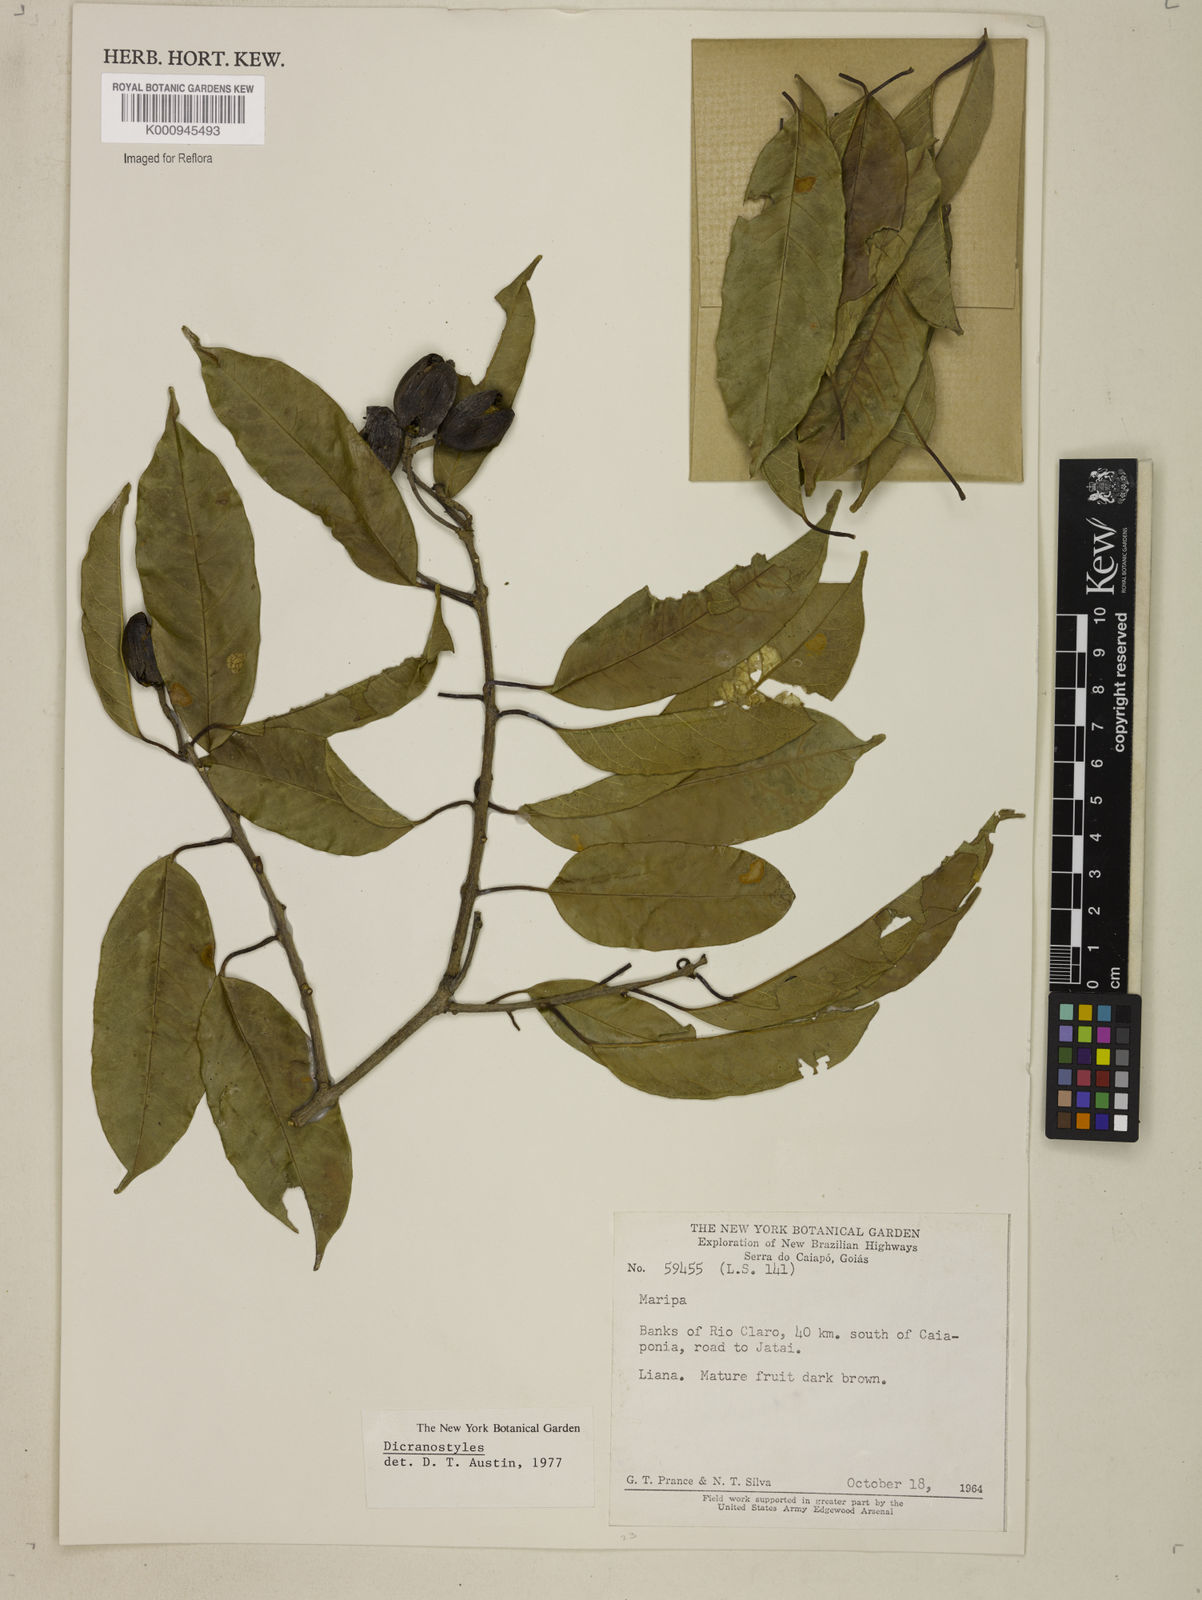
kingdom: Plantae
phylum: Tracheophyta
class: Magnoliopsida
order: Solanales
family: Convolvulaceae
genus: Dicranostyles
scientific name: Dicranostyles
